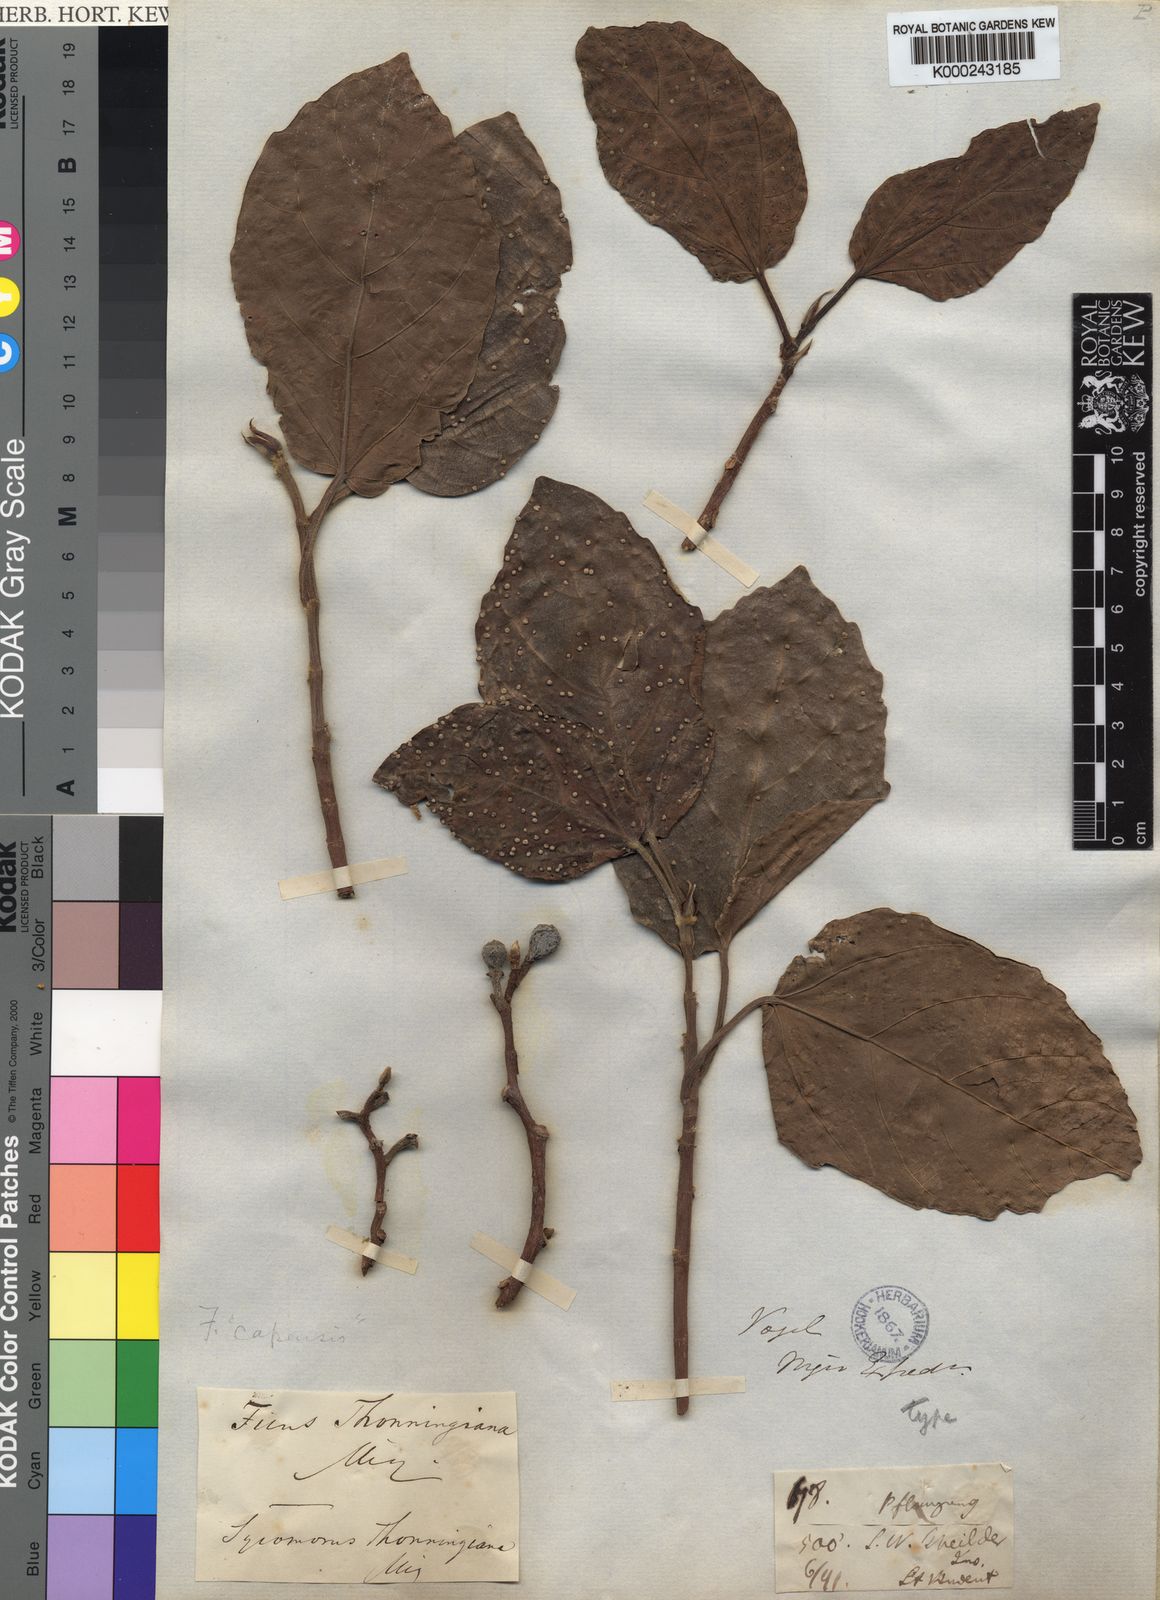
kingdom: Plantae
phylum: Tracheophyta
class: Magnoliopsida
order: Rosales
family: Moraceae
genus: Ficus
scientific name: Ficus sur
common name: Cape fig
